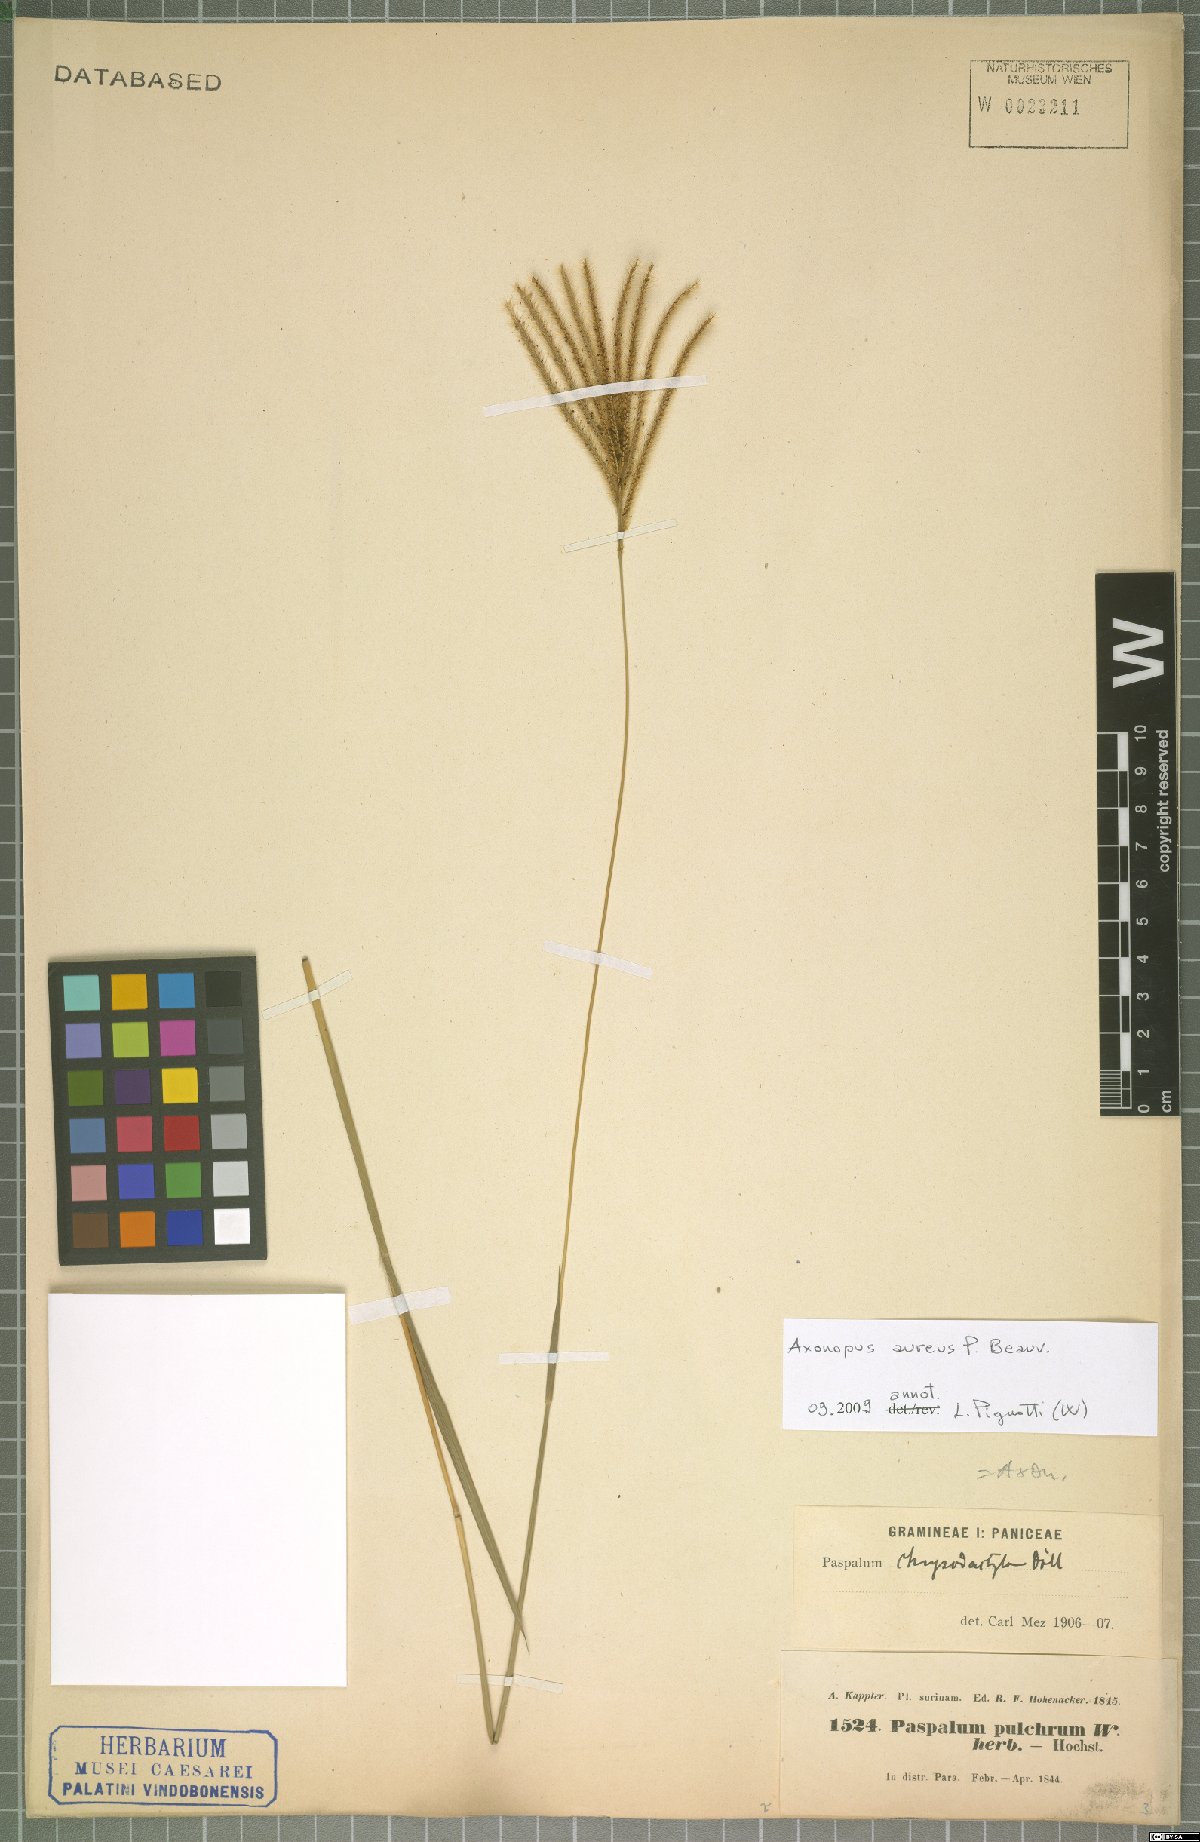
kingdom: Plantae
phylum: Tracheophyta
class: Liliopsida
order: Poales
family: Poaceae
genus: Axonopus
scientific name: Axonopus aureus
